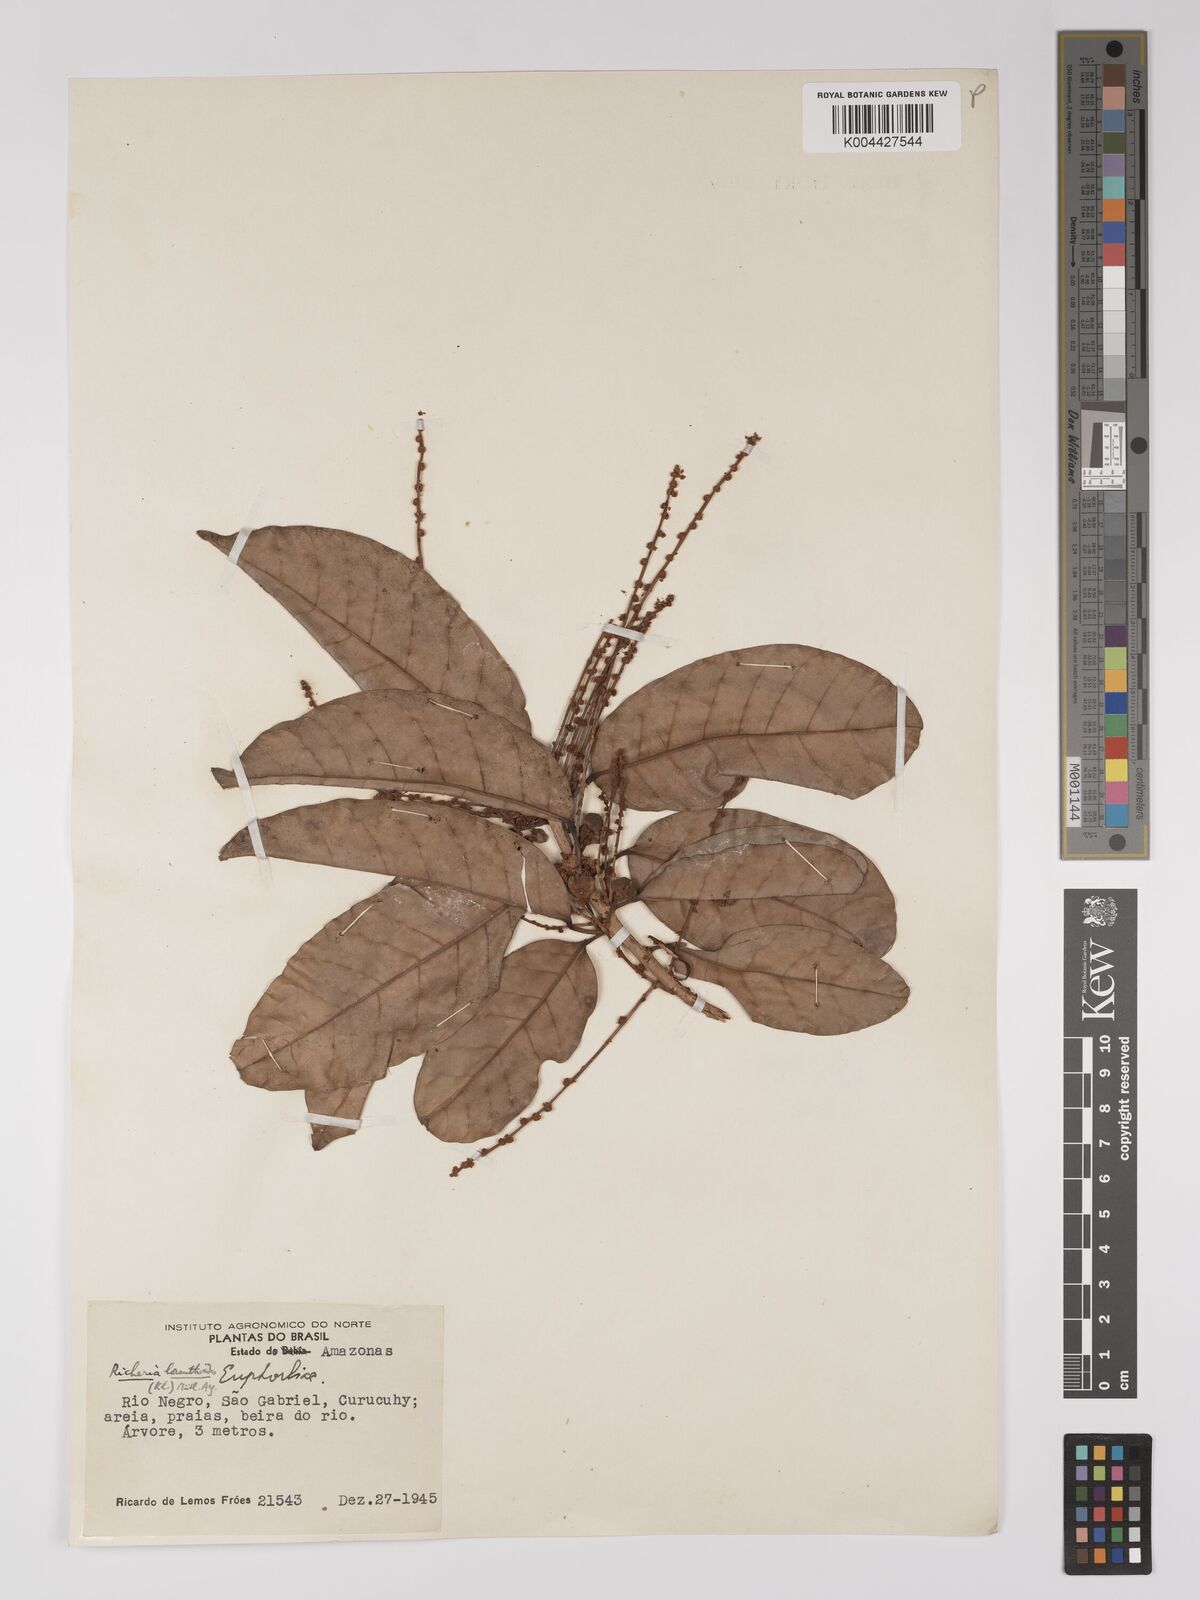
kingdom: Plantae
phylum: Tracheophyta
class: Magnoliopsida
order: Malpighiales
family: Picrodendraceae
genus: Podocalyx
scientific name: Podocalyx loranthoides
